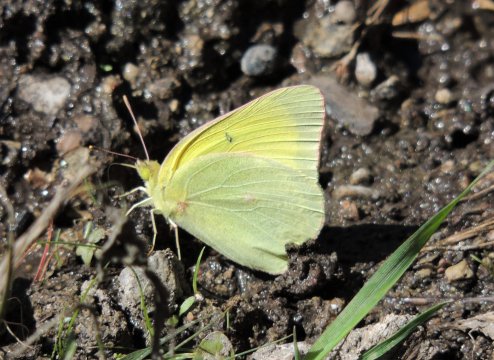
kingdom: Animalia
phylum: Arthropoda
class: Insecta
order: Lepidoptera
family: Pieridae
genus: Colias
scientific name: Colias alexandra
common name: Queen Alexandra's Sulphur
